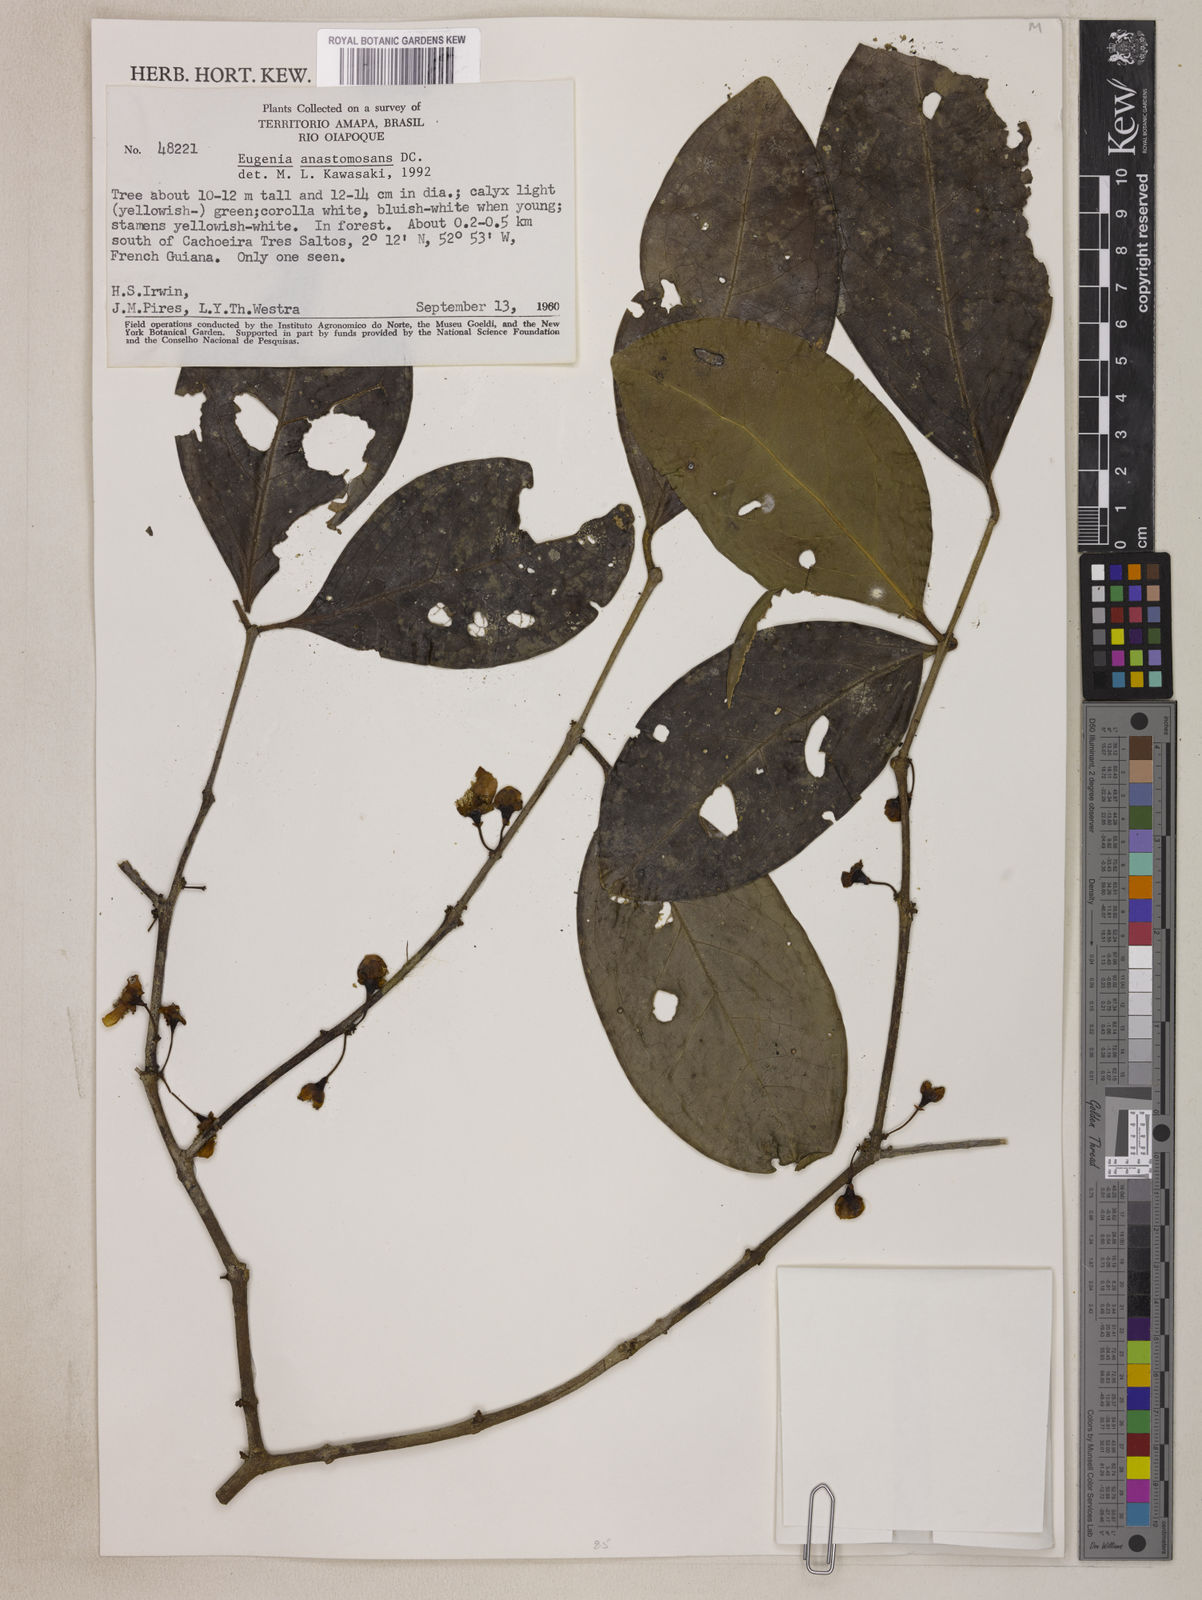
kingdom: Plantae
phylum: Tracheophyta
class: Magnoliopsida
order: Myrtales
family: Myrtaceae
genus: Eugenia
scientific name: Eugenia anastomosans
